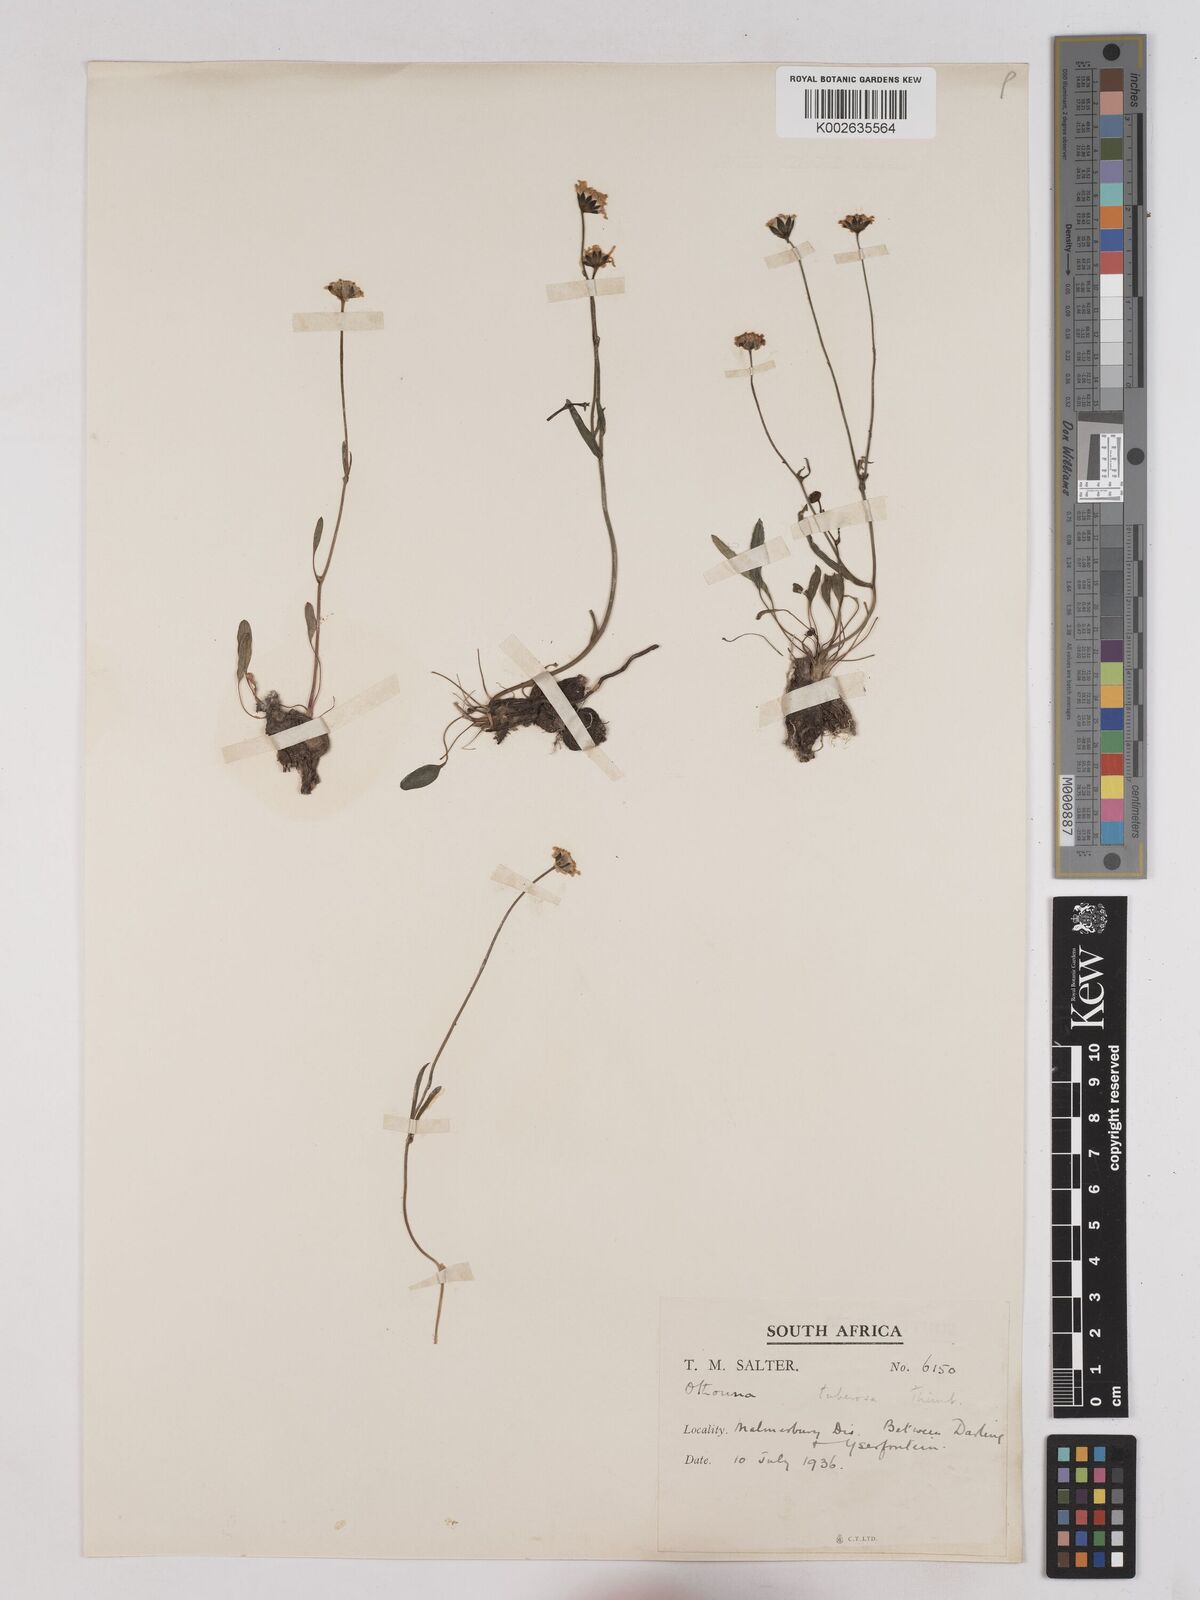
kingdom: Plantae
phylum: Tracheophyta
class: Magnoliopsida
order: Asterales
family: Asteraceae
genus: Othonna
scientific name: Othonna bulbosa
